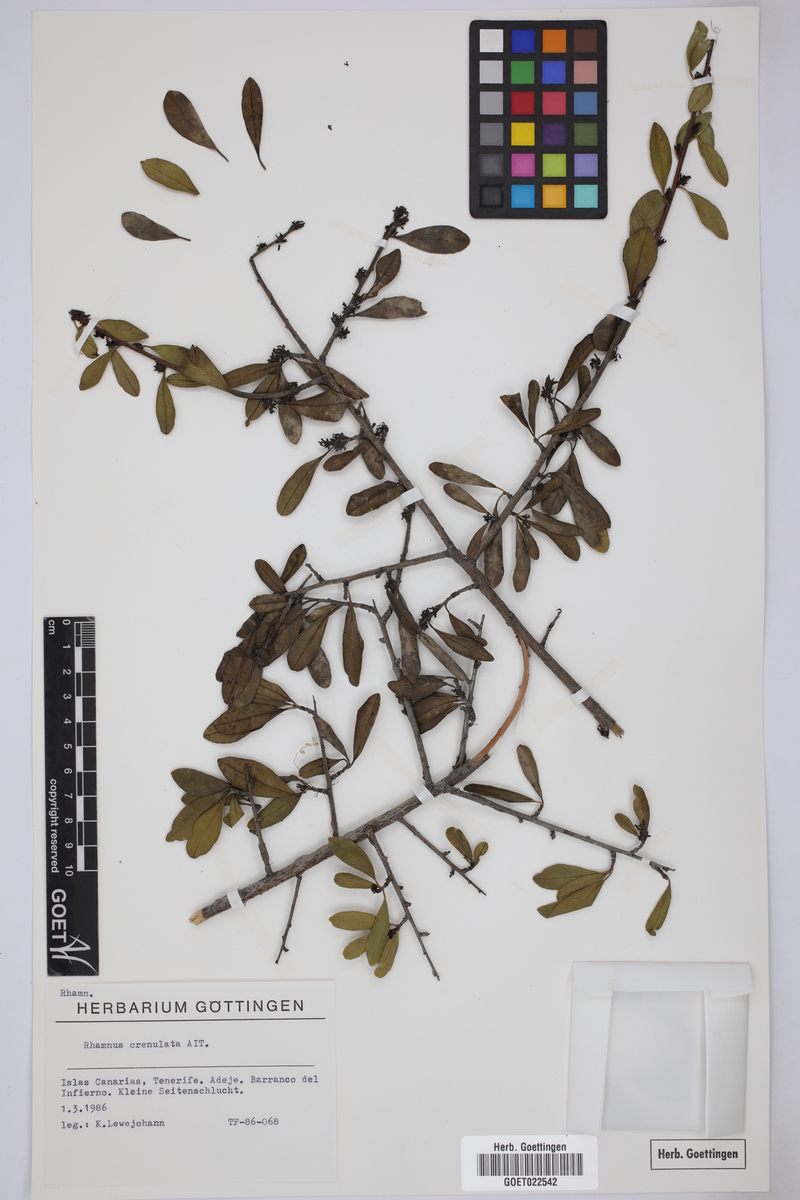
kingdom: Plantae
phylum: Tracheophyta
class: Magnoliopsida
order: Rosales
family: Rhamnaceae
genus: Rhamnus
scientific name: Rhamnus crenulata
